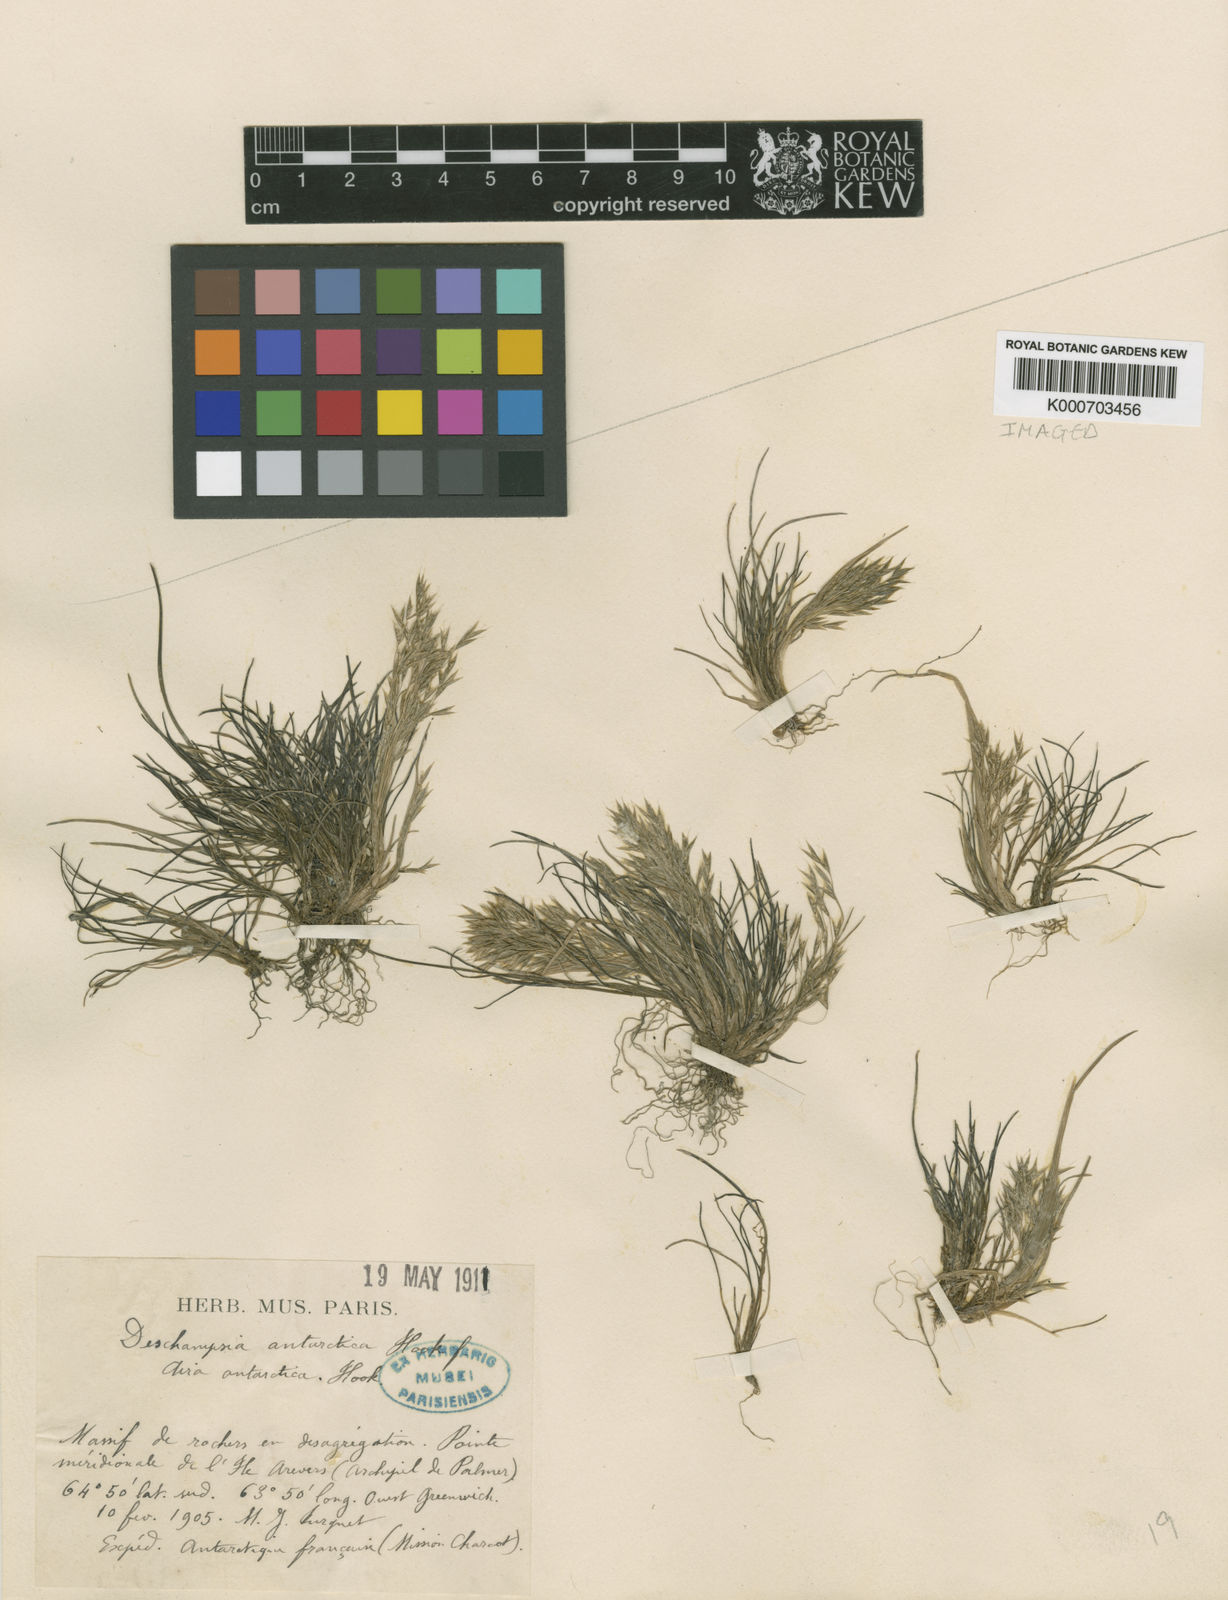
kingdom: Plantae
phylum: Tracheophyta
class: Liliopsida
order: Poales
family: Poaceae
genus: Deschampsia
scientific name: Deschampsia antarctica
